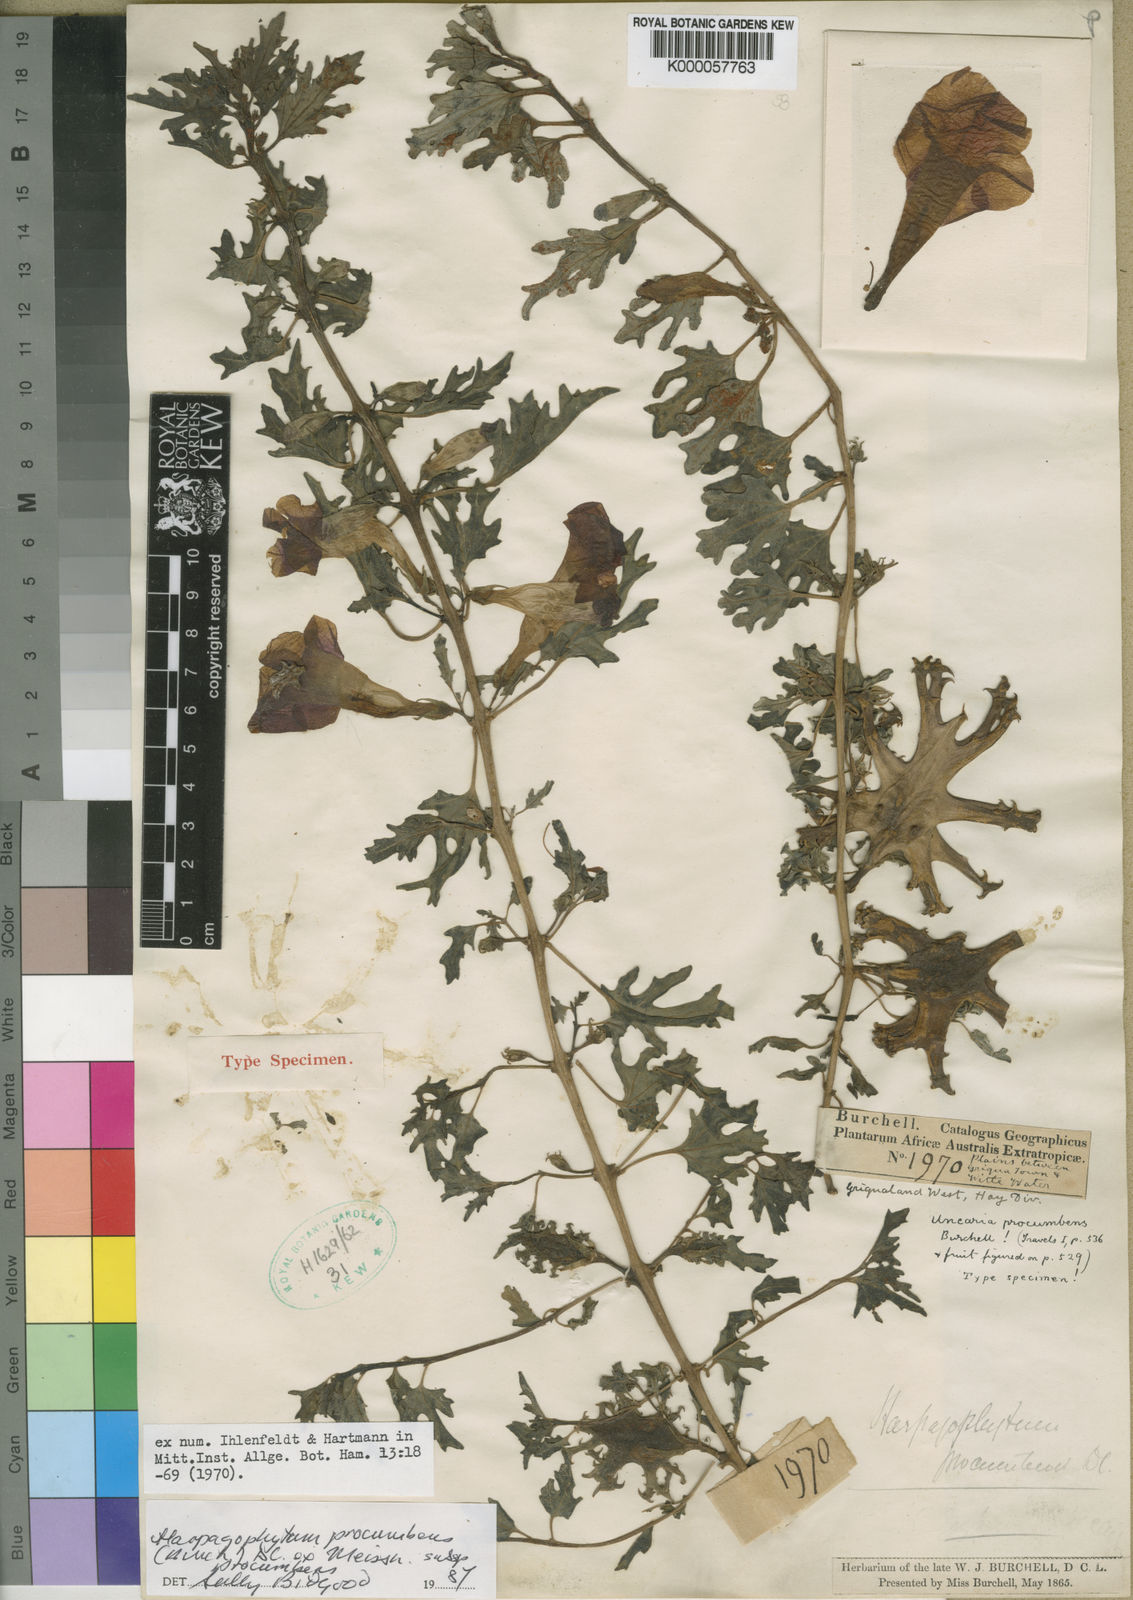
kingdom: Plantae
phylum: Tracheophyta
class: Magnoliopsida
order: Lamiales
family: Pedaliaceae
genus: Harpagophytum
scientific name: Harpagophytum procumbens
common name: Grappleplant
